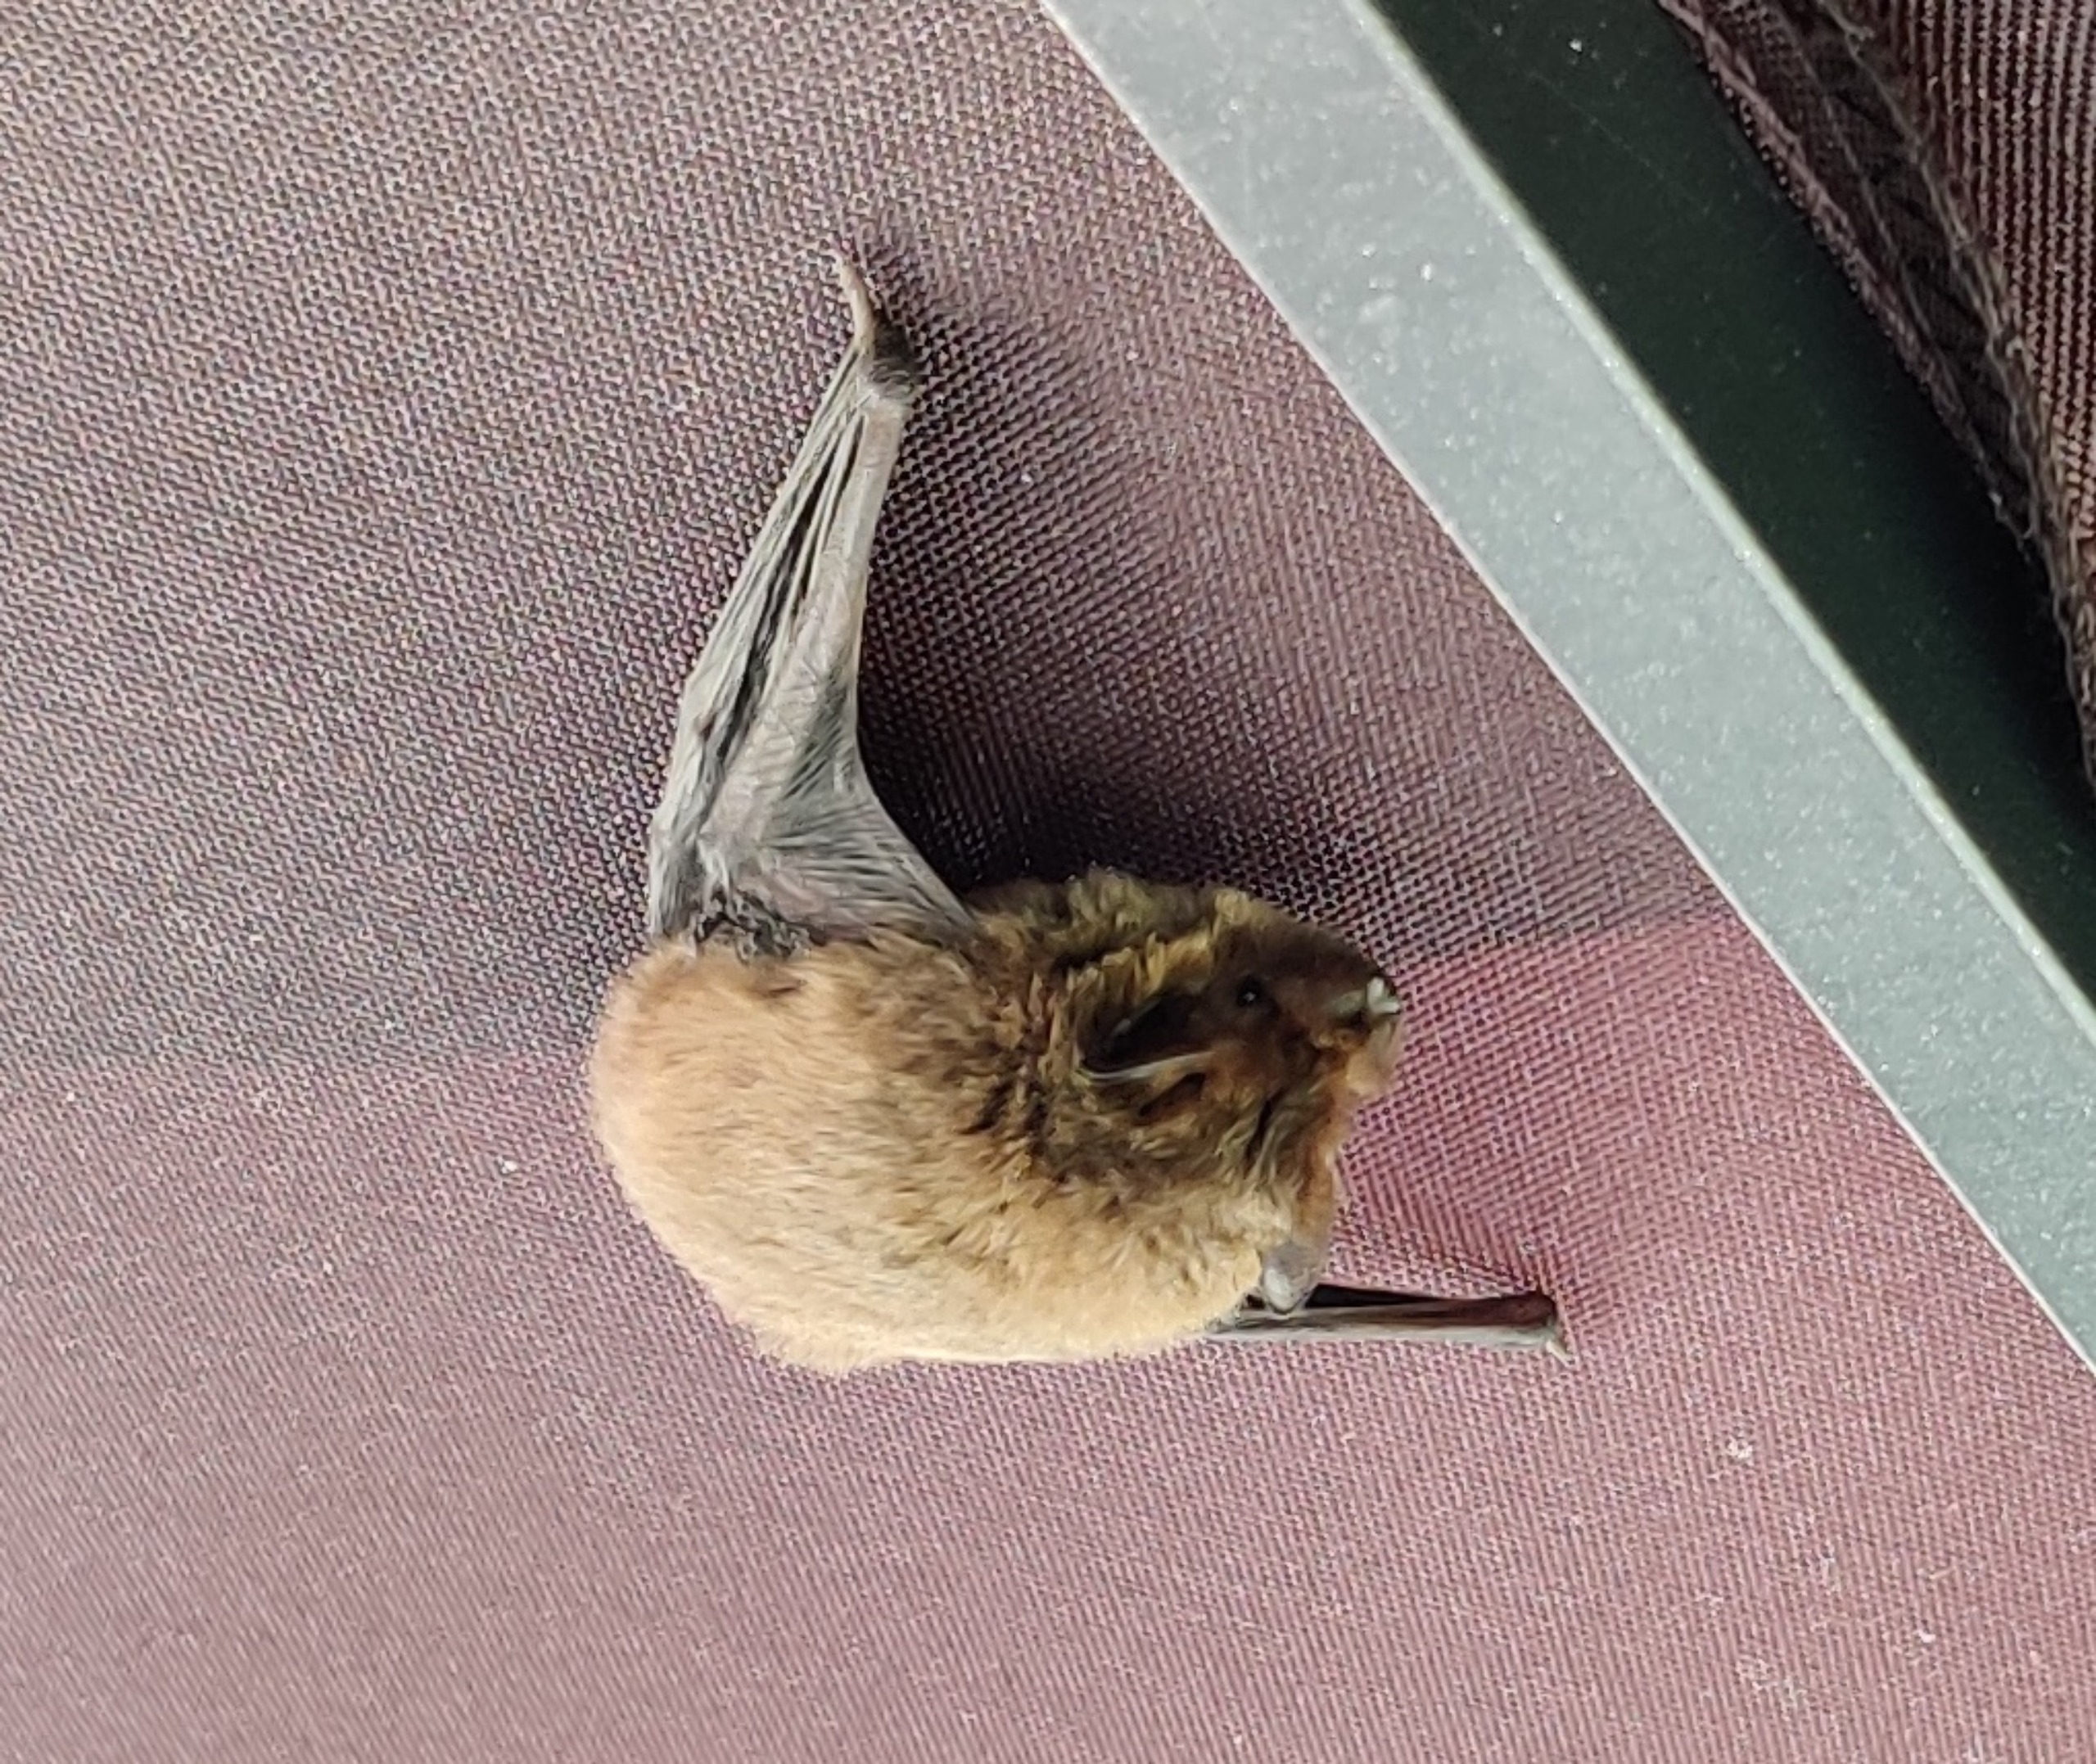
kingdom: Animalia
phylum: Chordata
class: Mammalia
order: Chiroptera
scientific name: Chiroptera
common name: Flagermus
